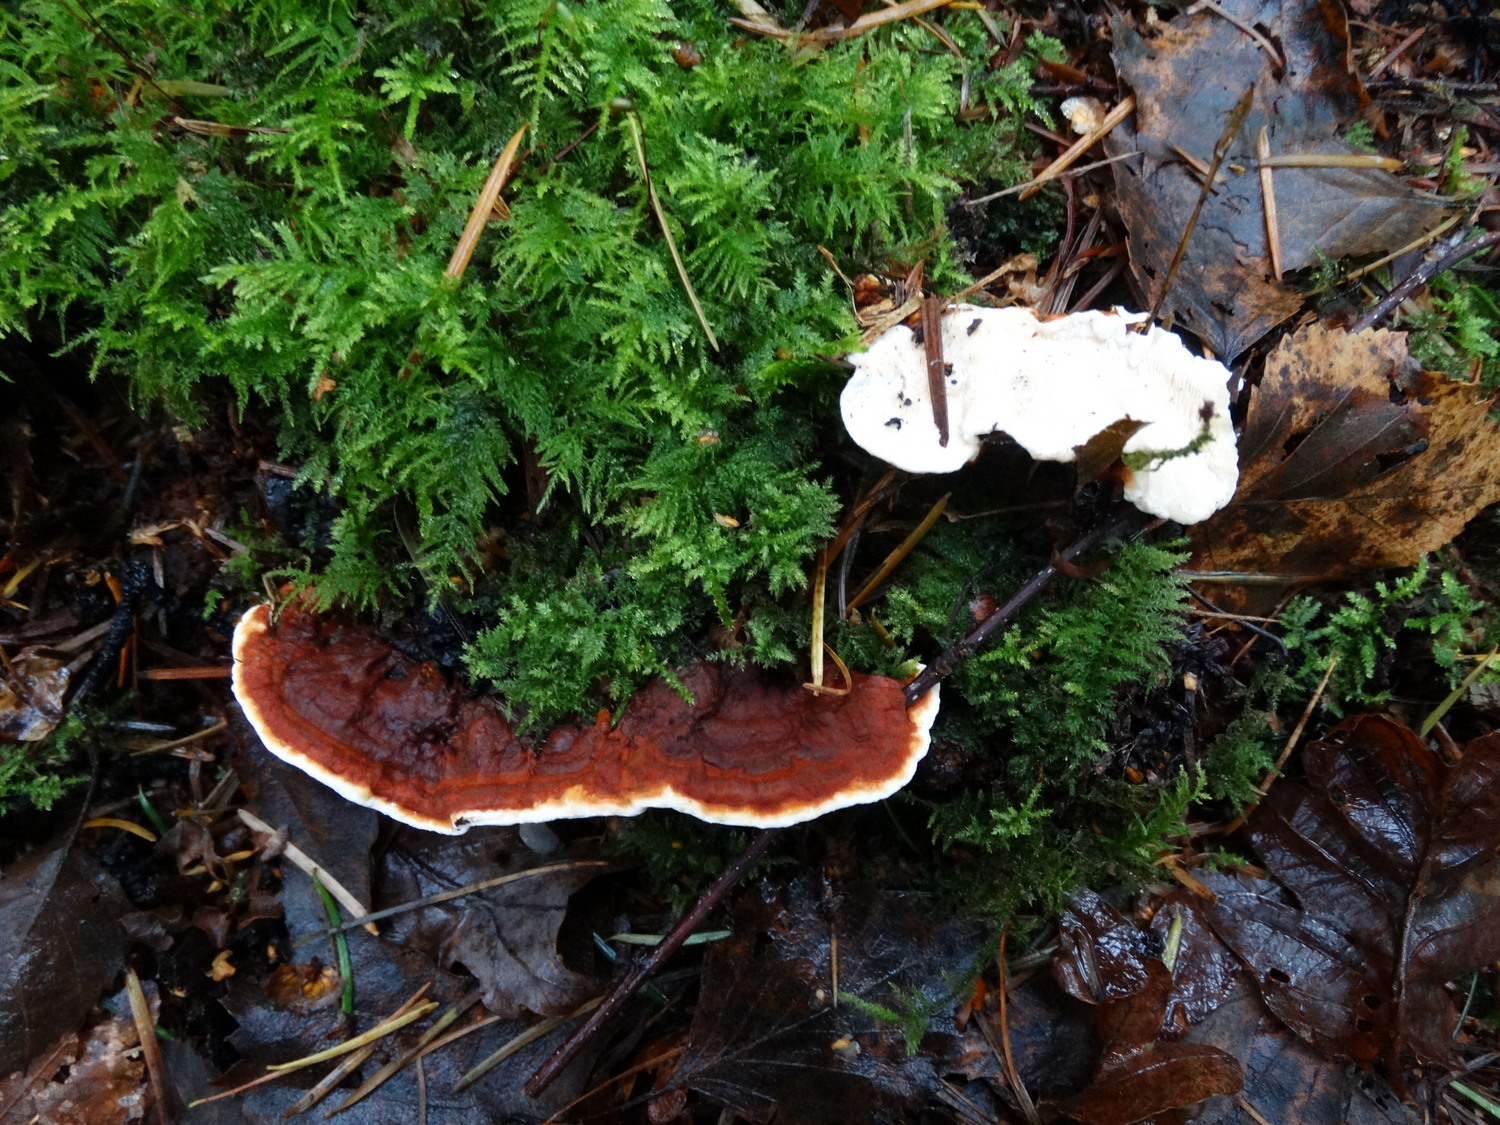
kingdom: Fungi
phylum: Basidiomycota
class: Agaricomycetes
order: Russulales
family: Bondarzewiaceae
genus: Heterobasidion
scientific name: Heterobasidion annosum
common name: almindelig rodfordærver
